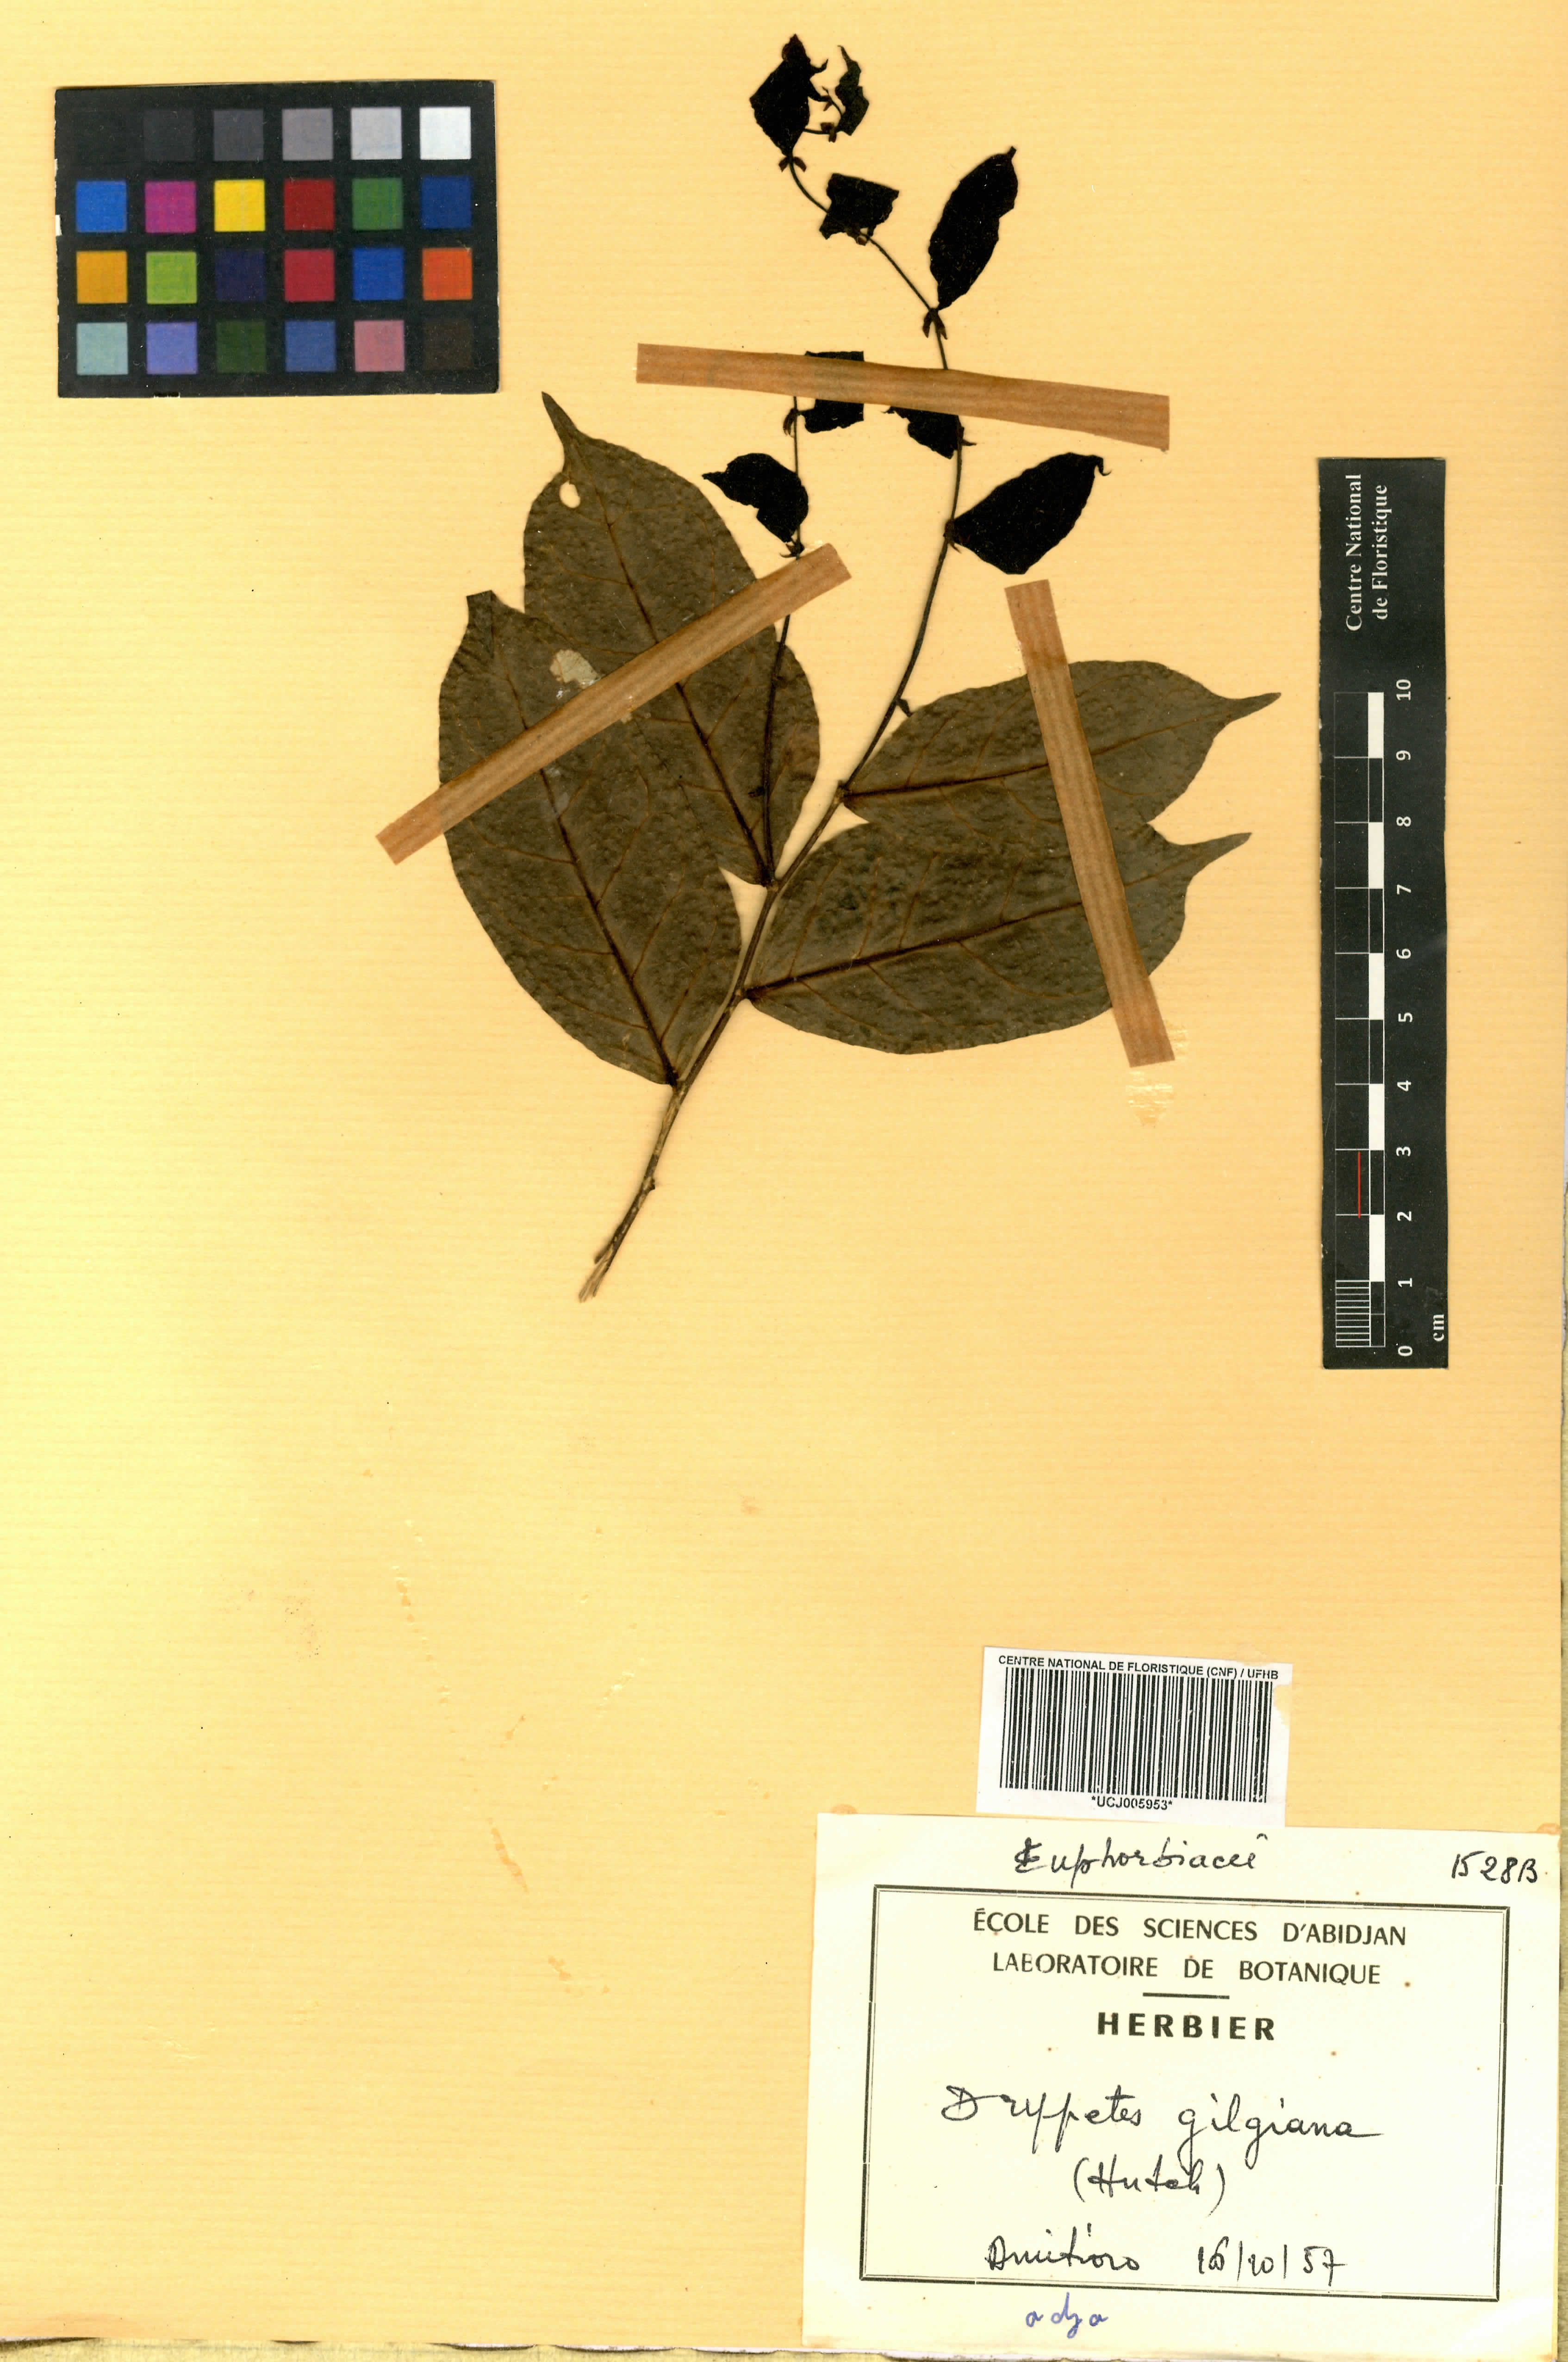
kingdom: Plantae
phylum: Tracheophyta
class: Magnoliopsida
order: Malpighiales
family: Euphorbiaceae
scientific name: Euphorbiaceae
